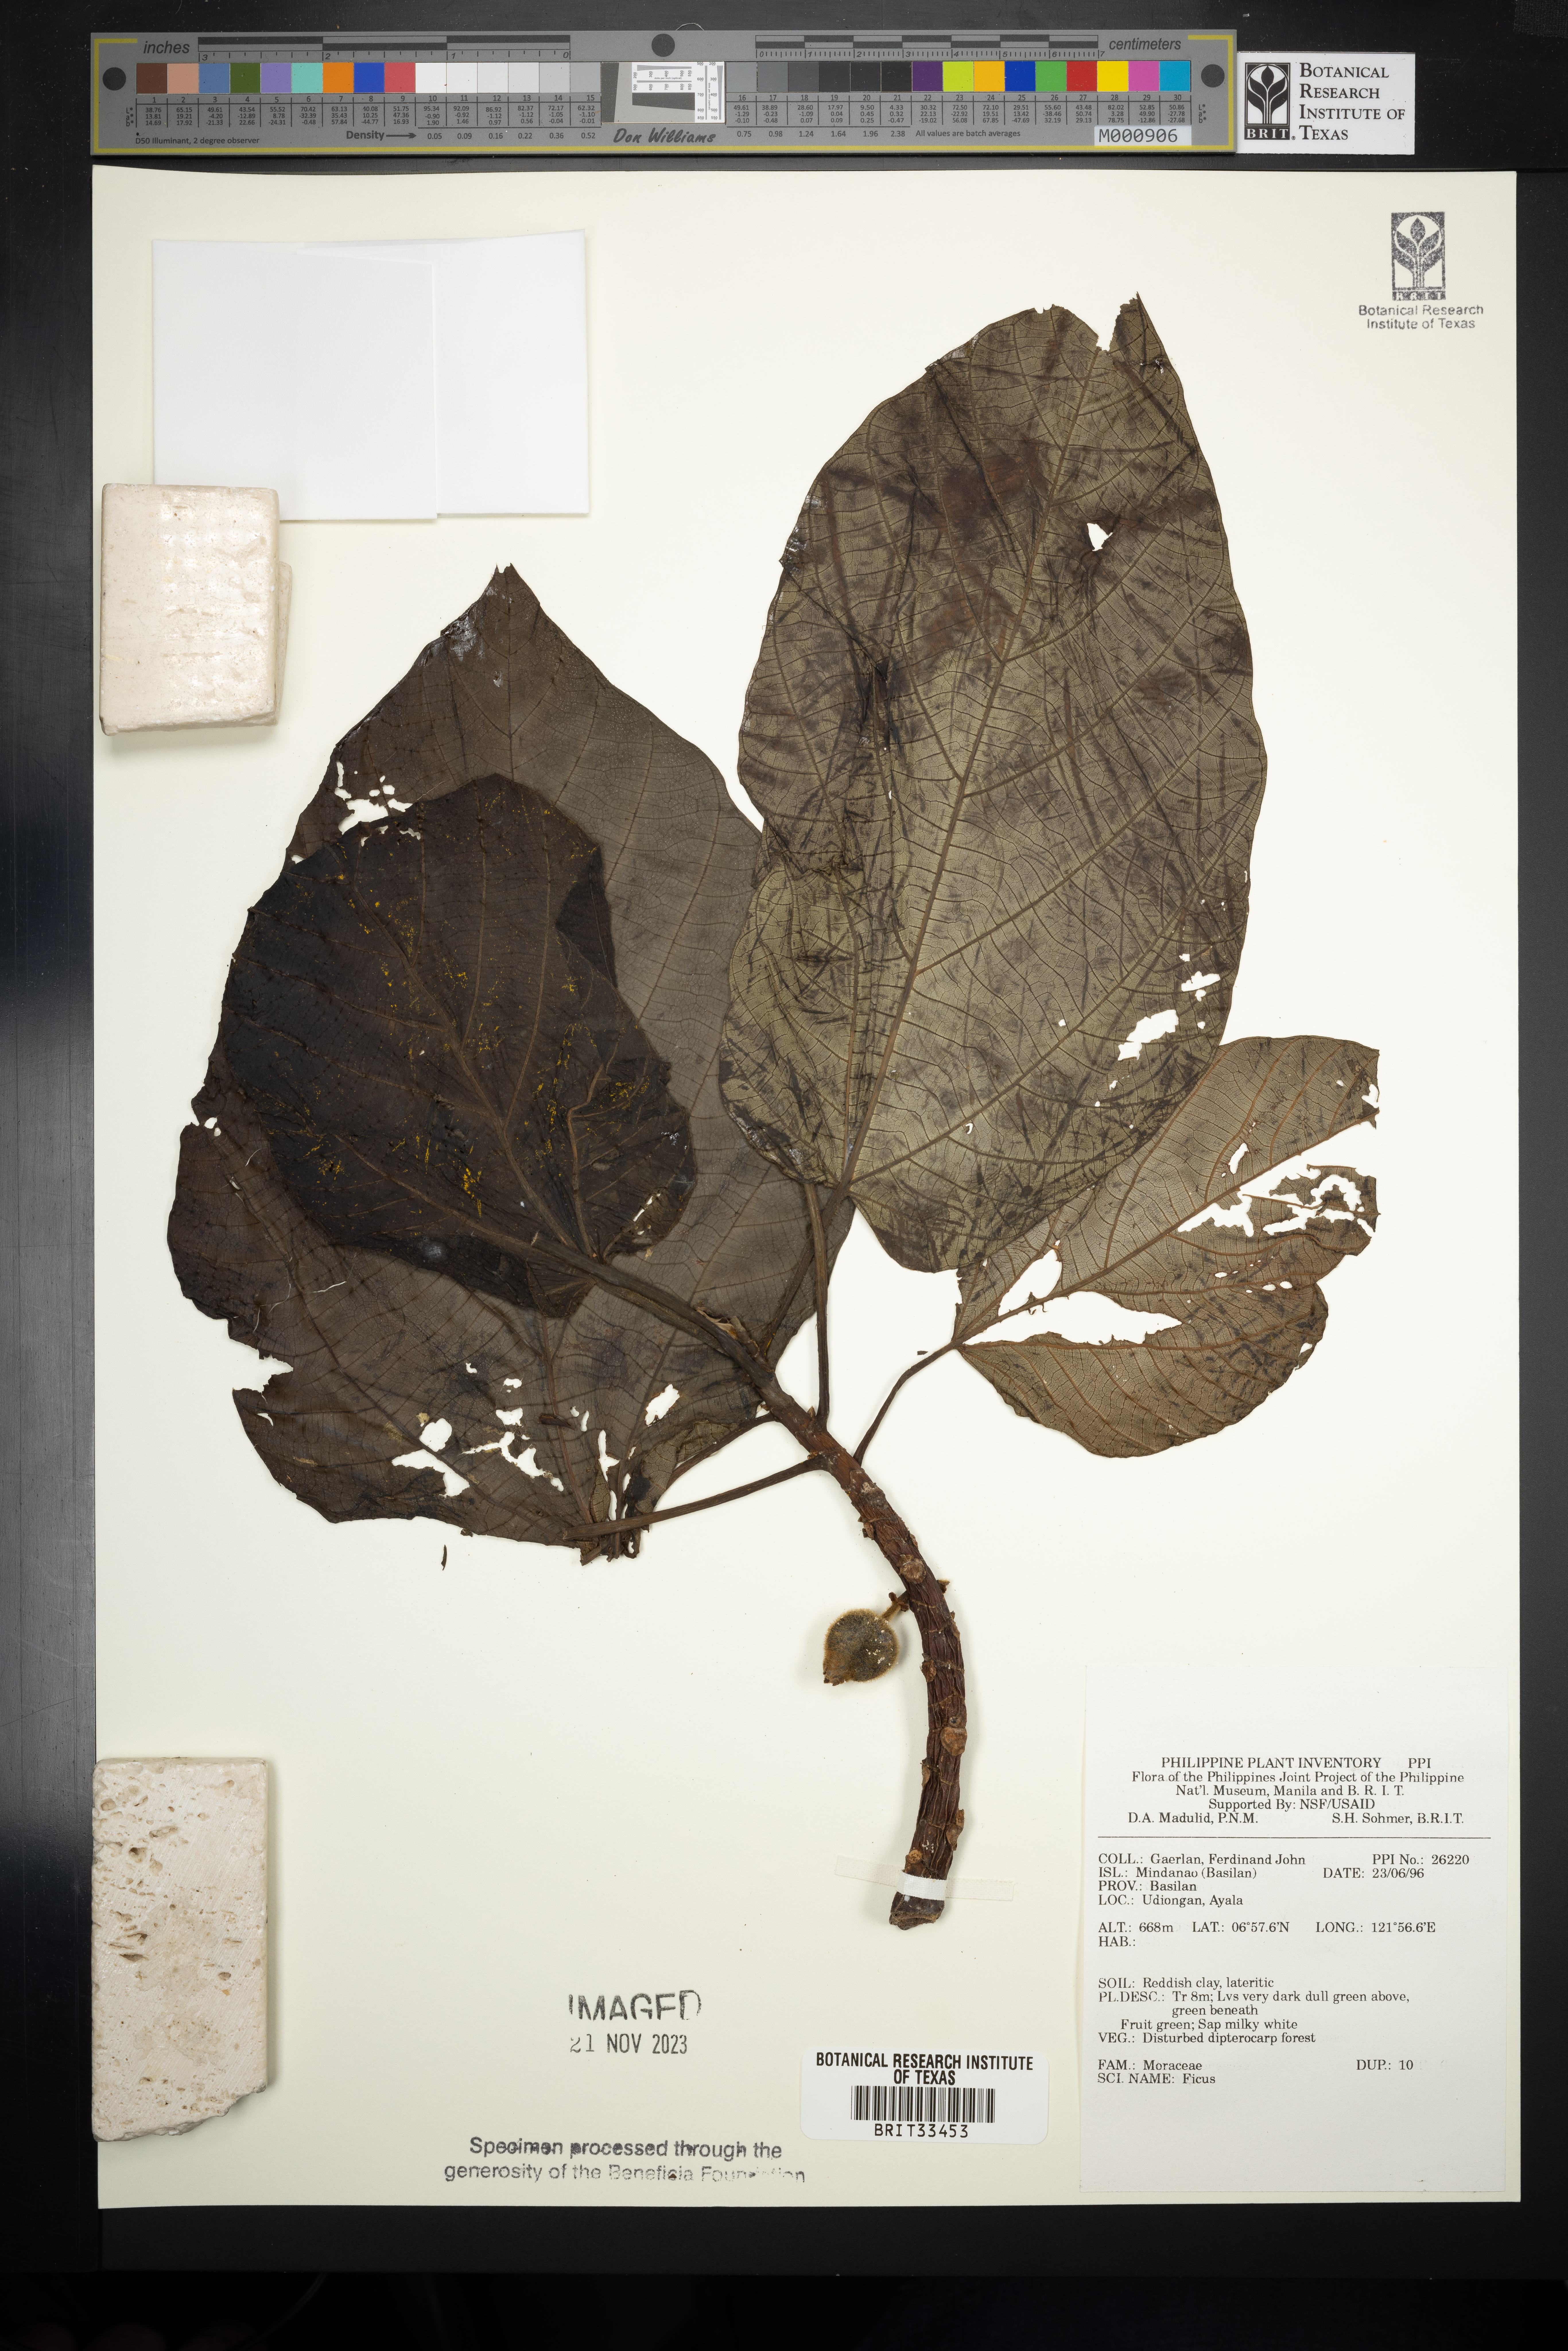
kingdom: Plantae
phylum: Tracheophyta
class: Magnoliopsida
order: Rosales
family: Moraceae
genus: Ficus
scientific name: Ficus
